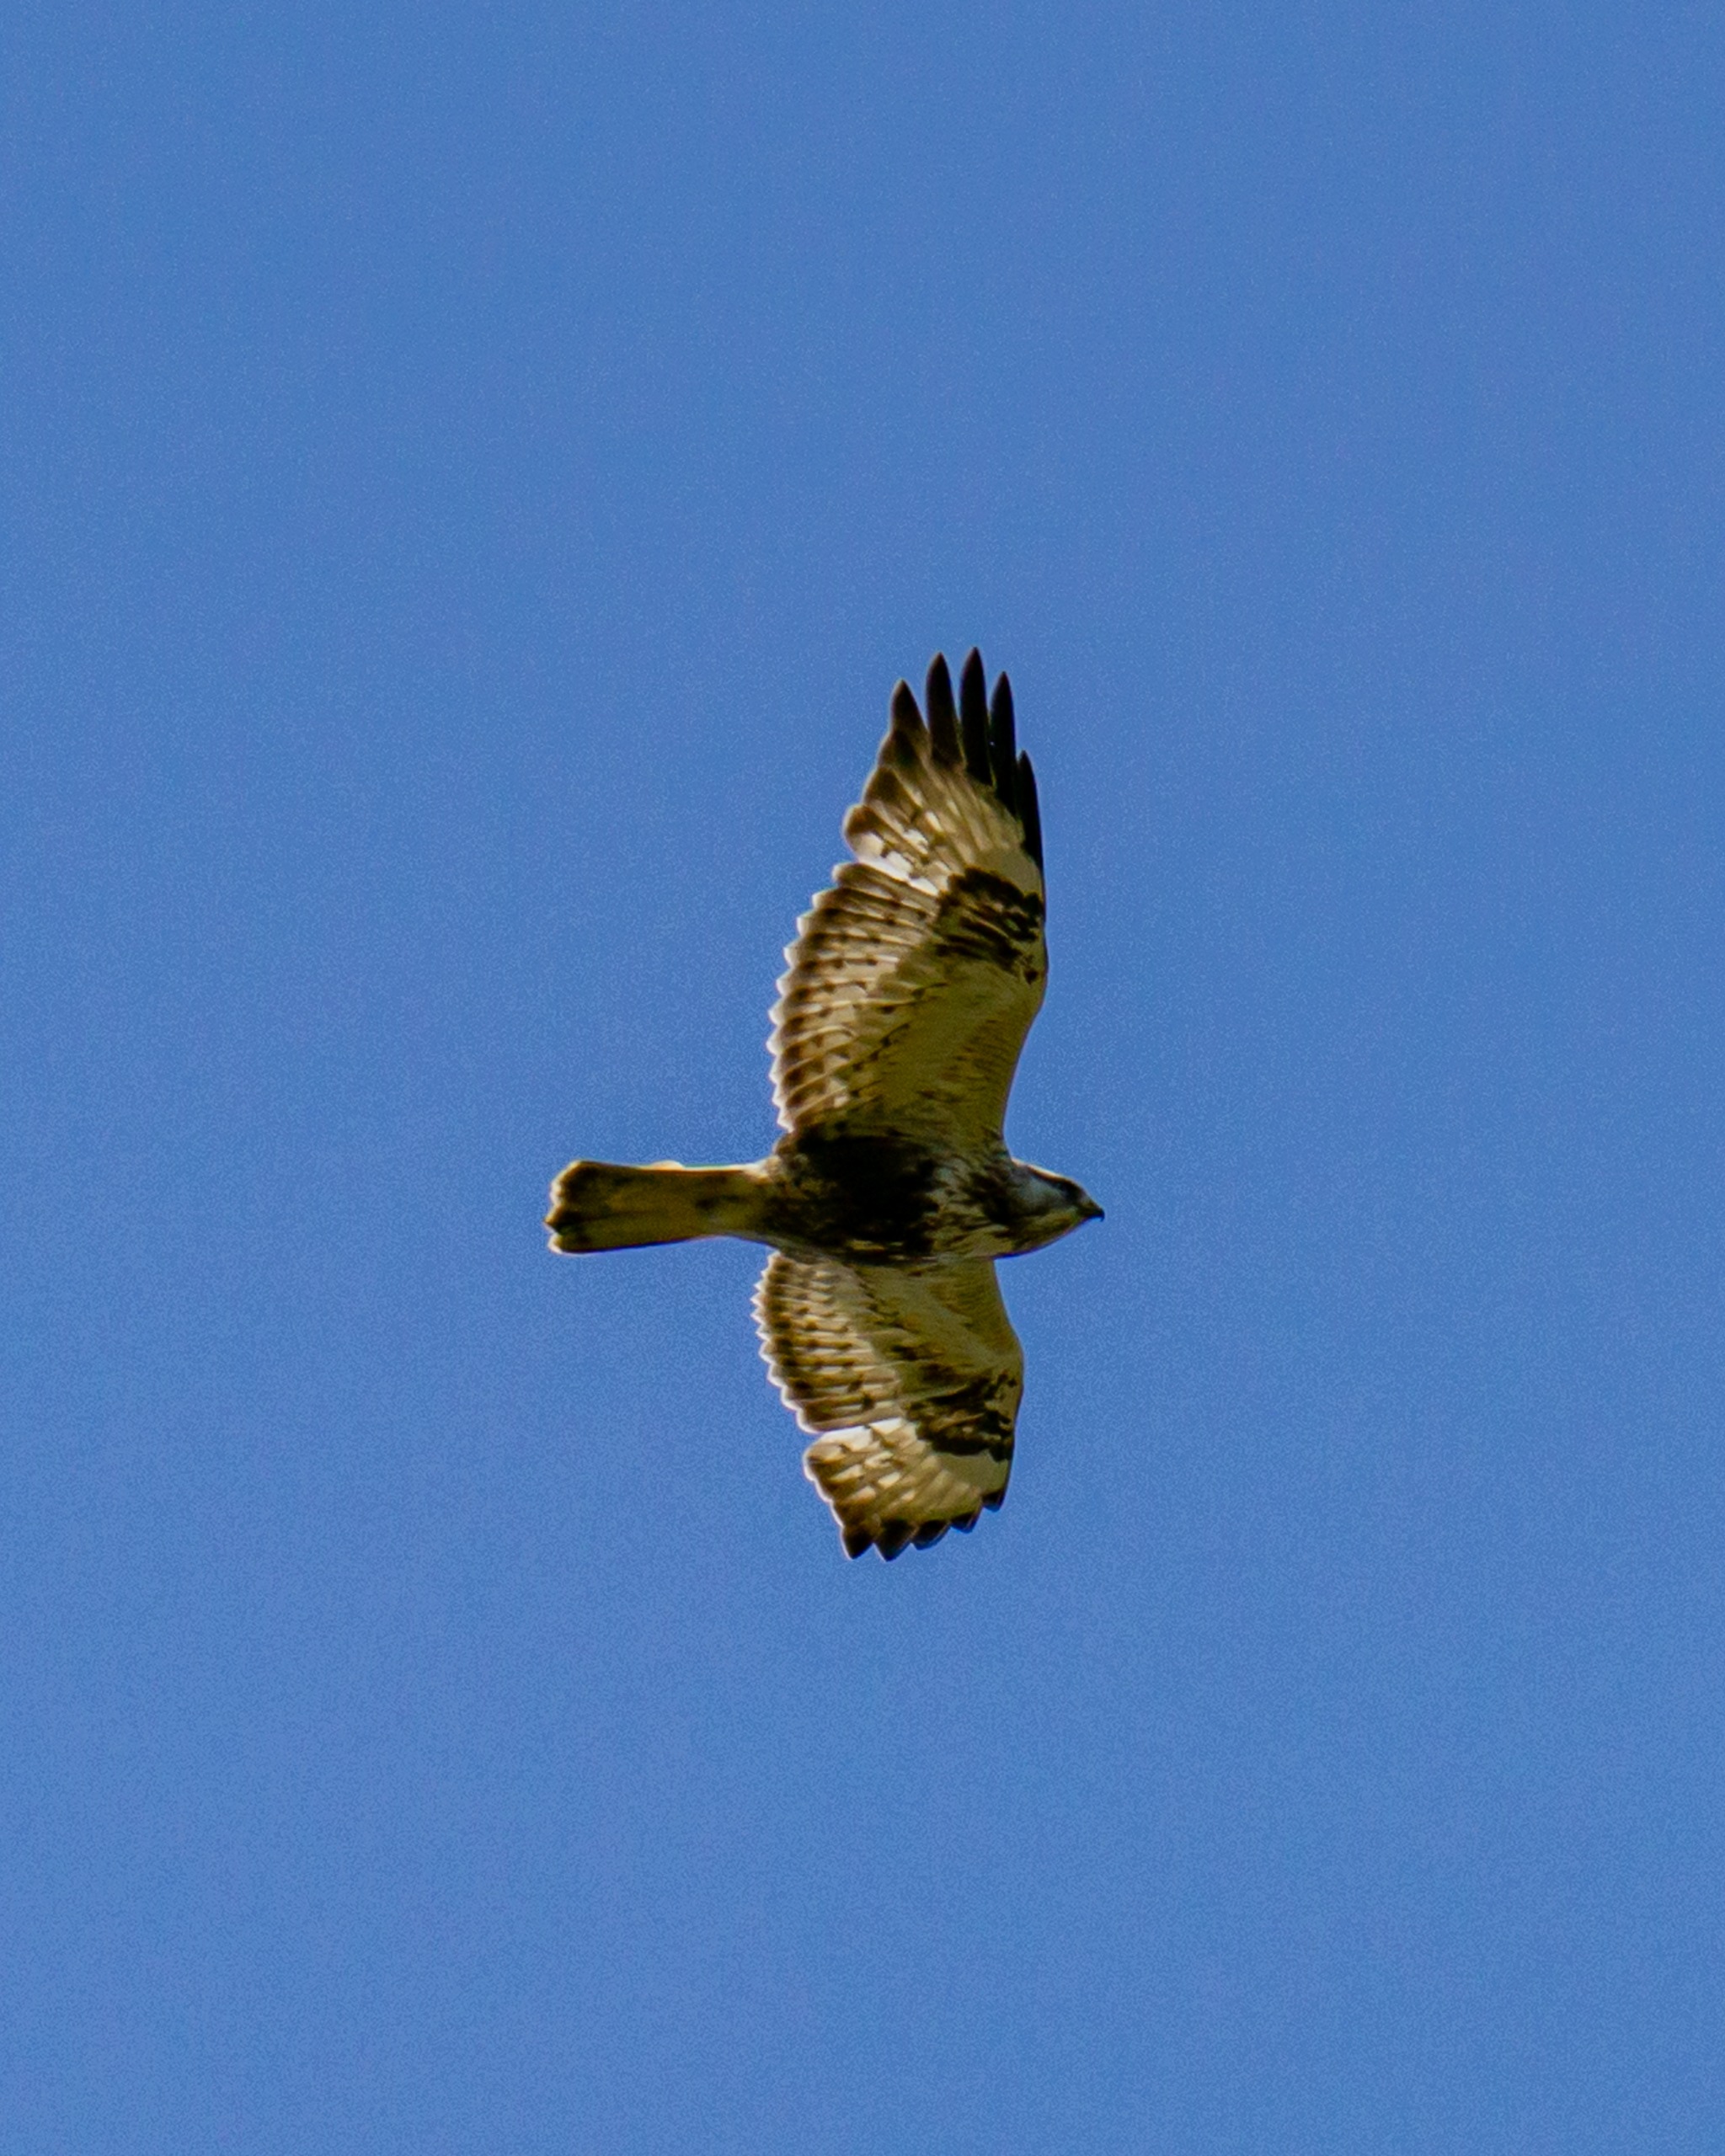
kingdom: Animalia
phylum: Chordata
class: Aves
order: Accipitriformes
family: Accipitridae
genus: Buteo
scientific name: Buteo lagopus
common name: Fjeldvåge
